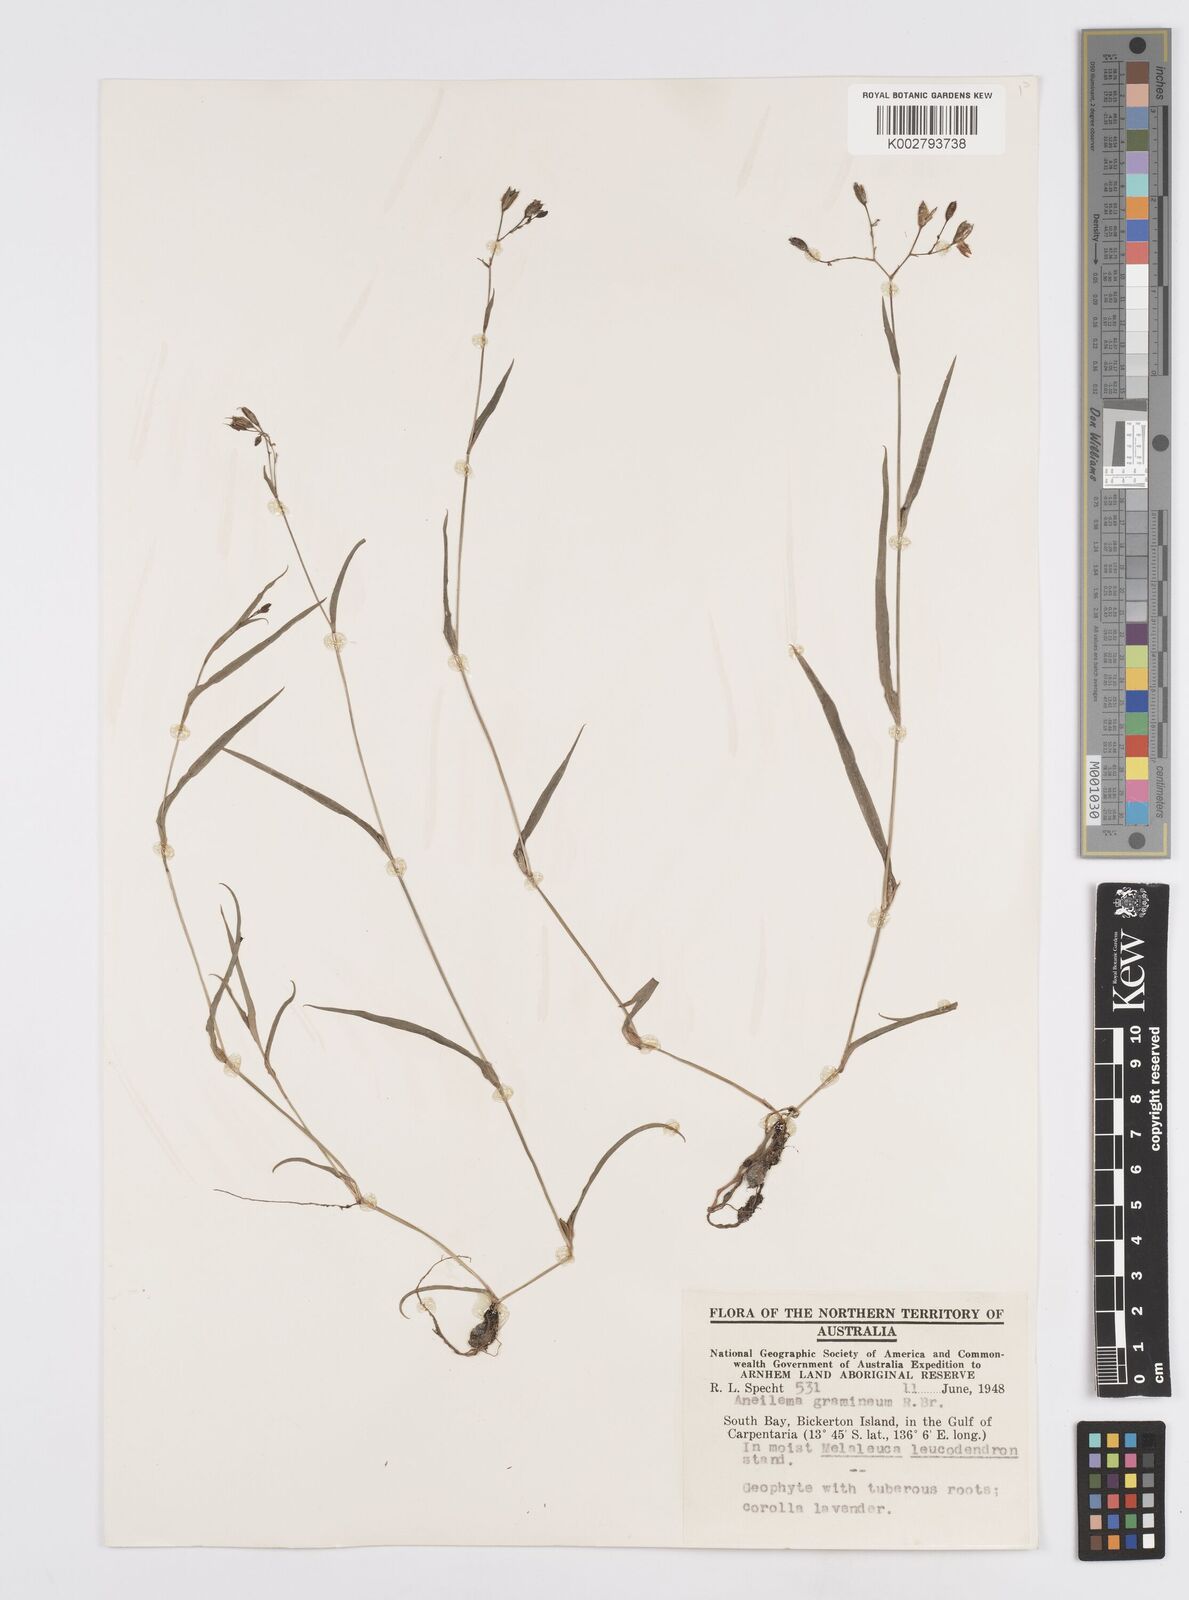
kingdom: Plantae
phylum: Tracheophyta
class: Liliopsida
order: Commelinales
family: Commelinaceae
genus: Murdannia
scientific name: Murdannia graminea
